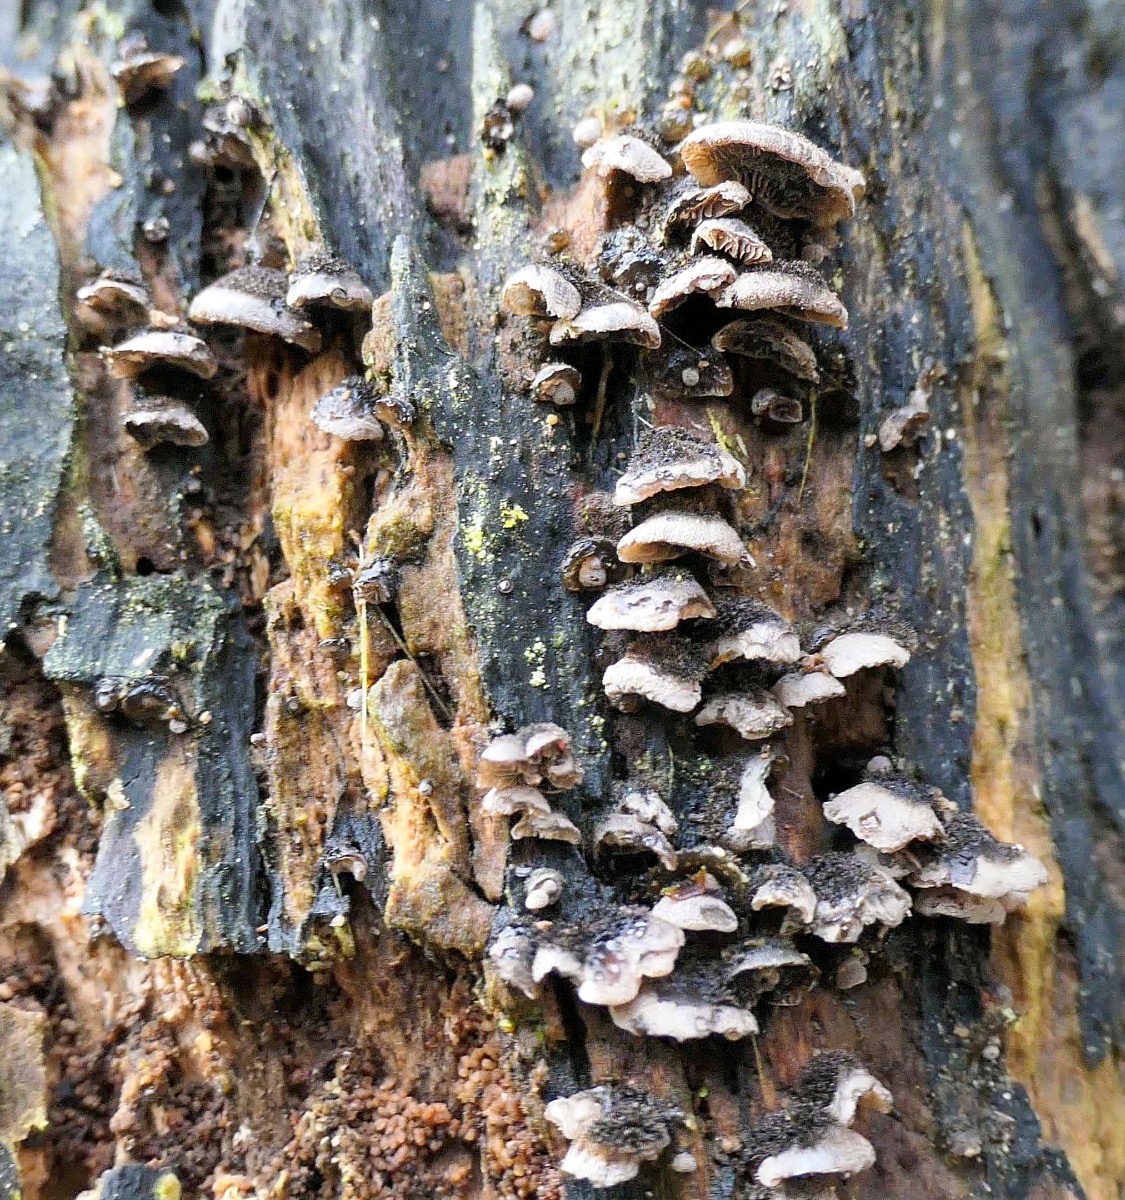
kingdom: Fungi
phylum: Basidiomycota
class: Agaricomycetes
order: Agaricales
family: Pleurotaceae
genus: Resupinatus
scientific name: Resupinatus trichotis
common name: mørkfiltet barkhat
